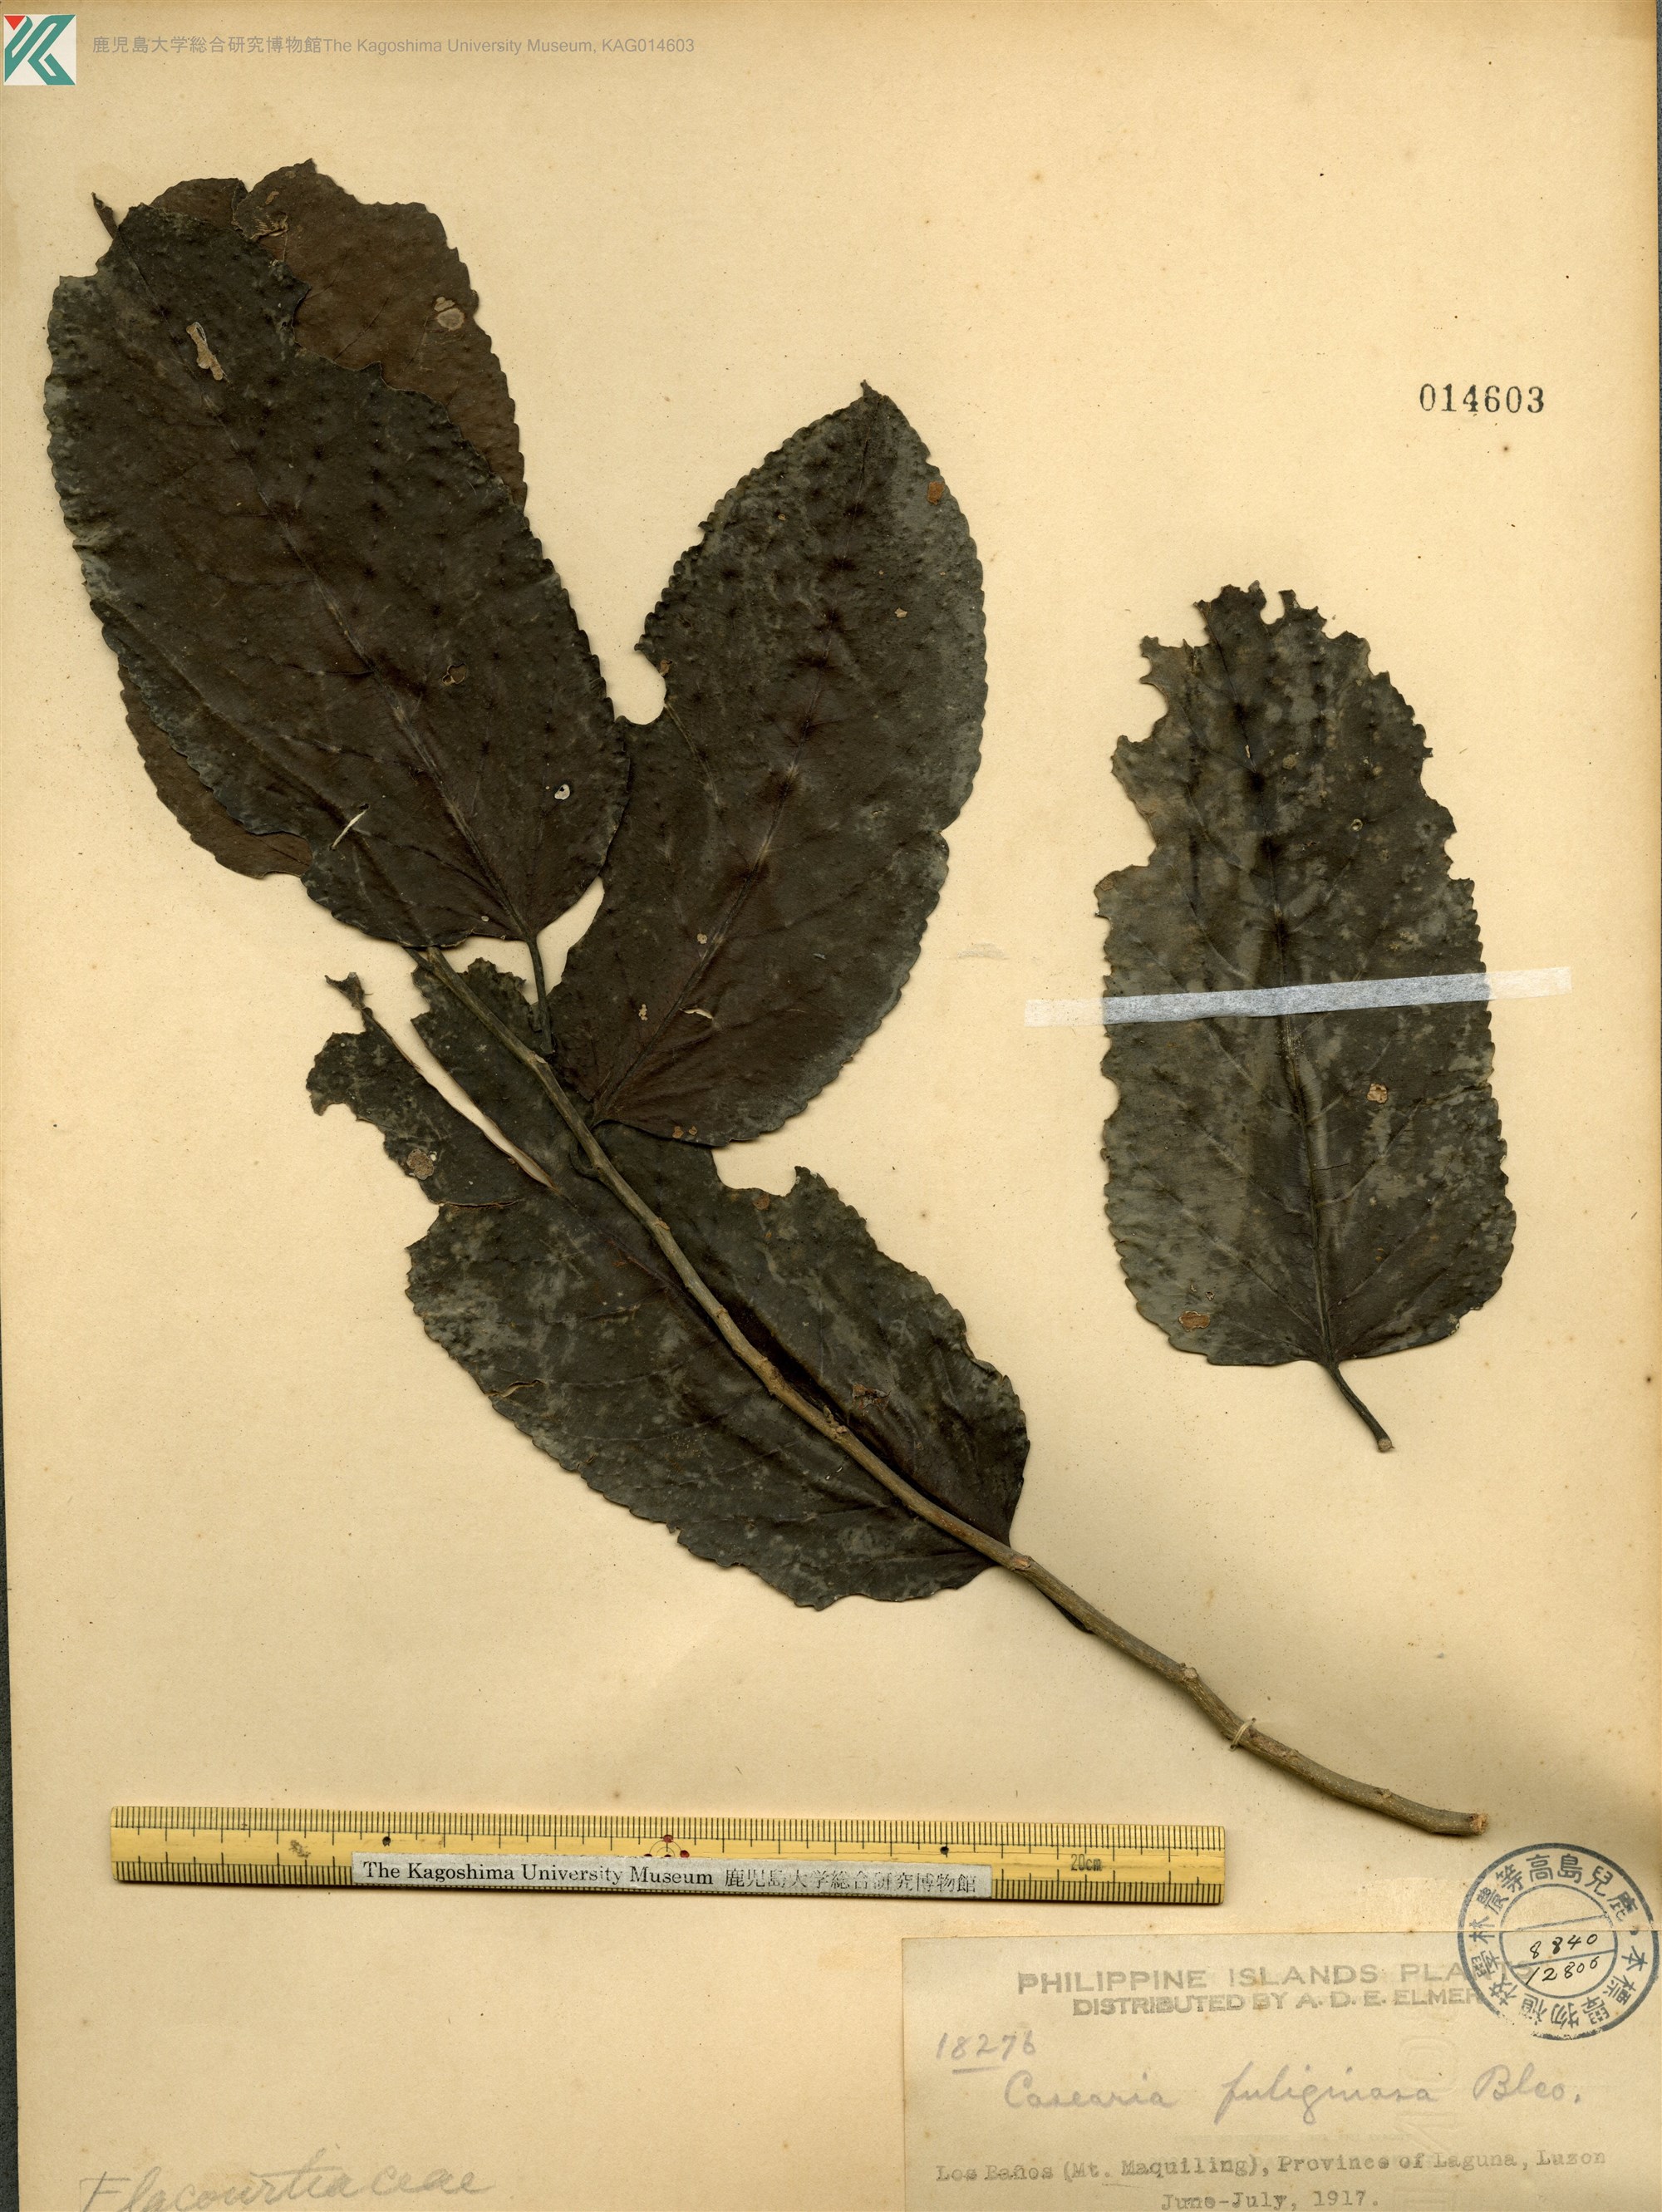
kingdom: Plantae
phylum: Tracheophyta
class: Magnoliopsida
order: Malpighiales
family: Salicaceae
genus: Casearia
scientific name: Casearia fuliginosa
